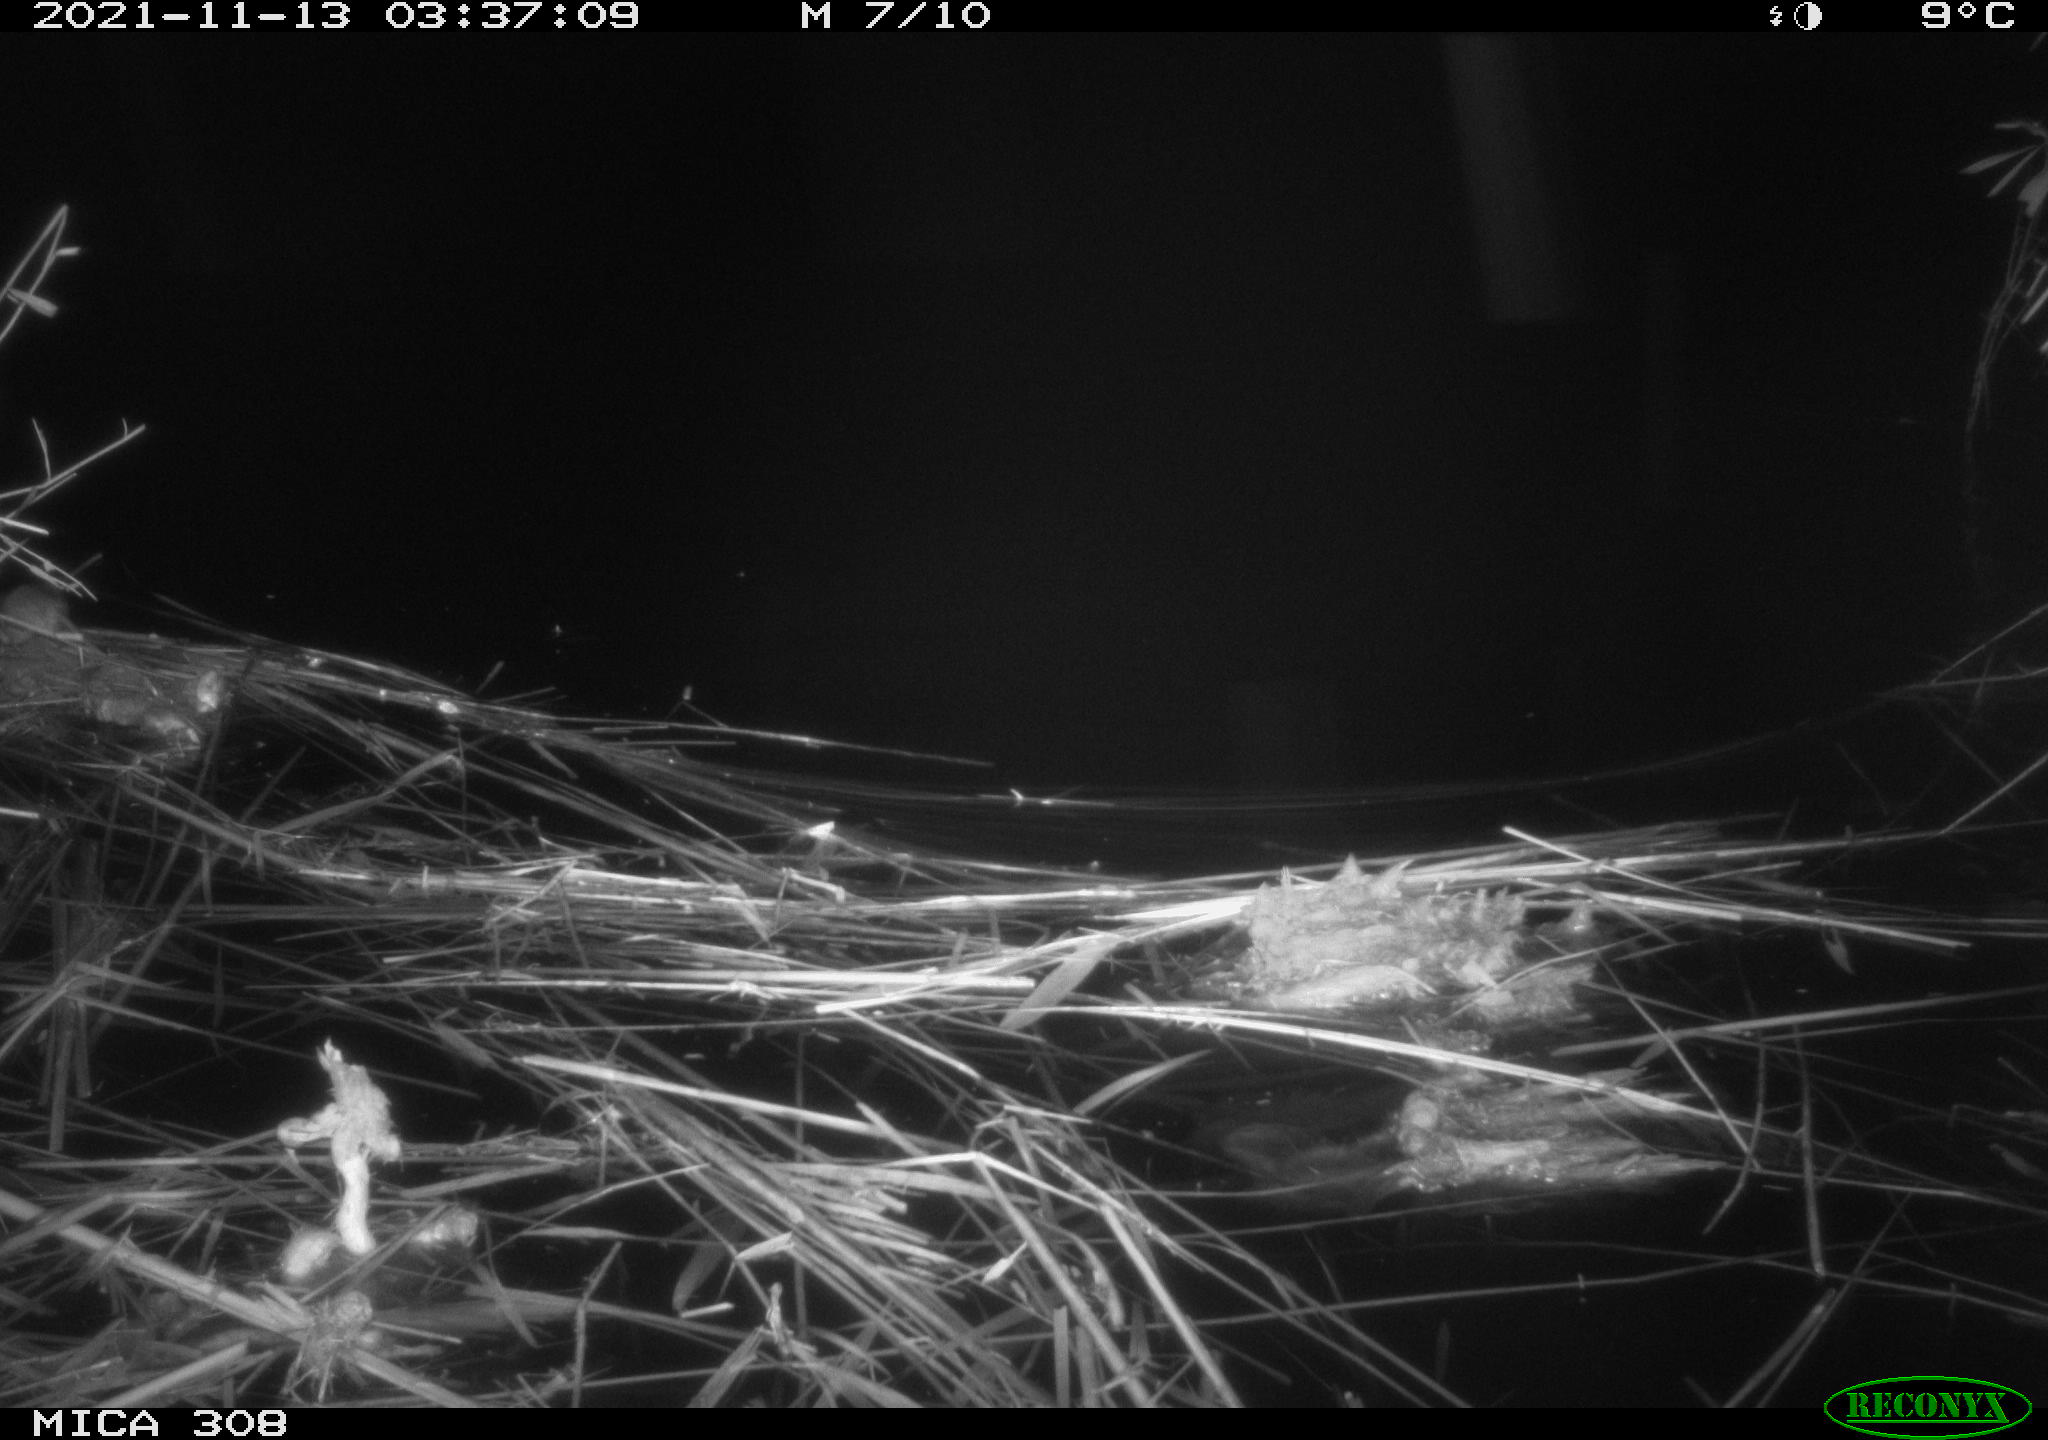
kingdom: Animalia
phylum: Chordata
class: Mammalia
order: Rodentia
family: Muridae
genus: Rattus
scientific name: Rattus norvegicus
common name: Brown rat
